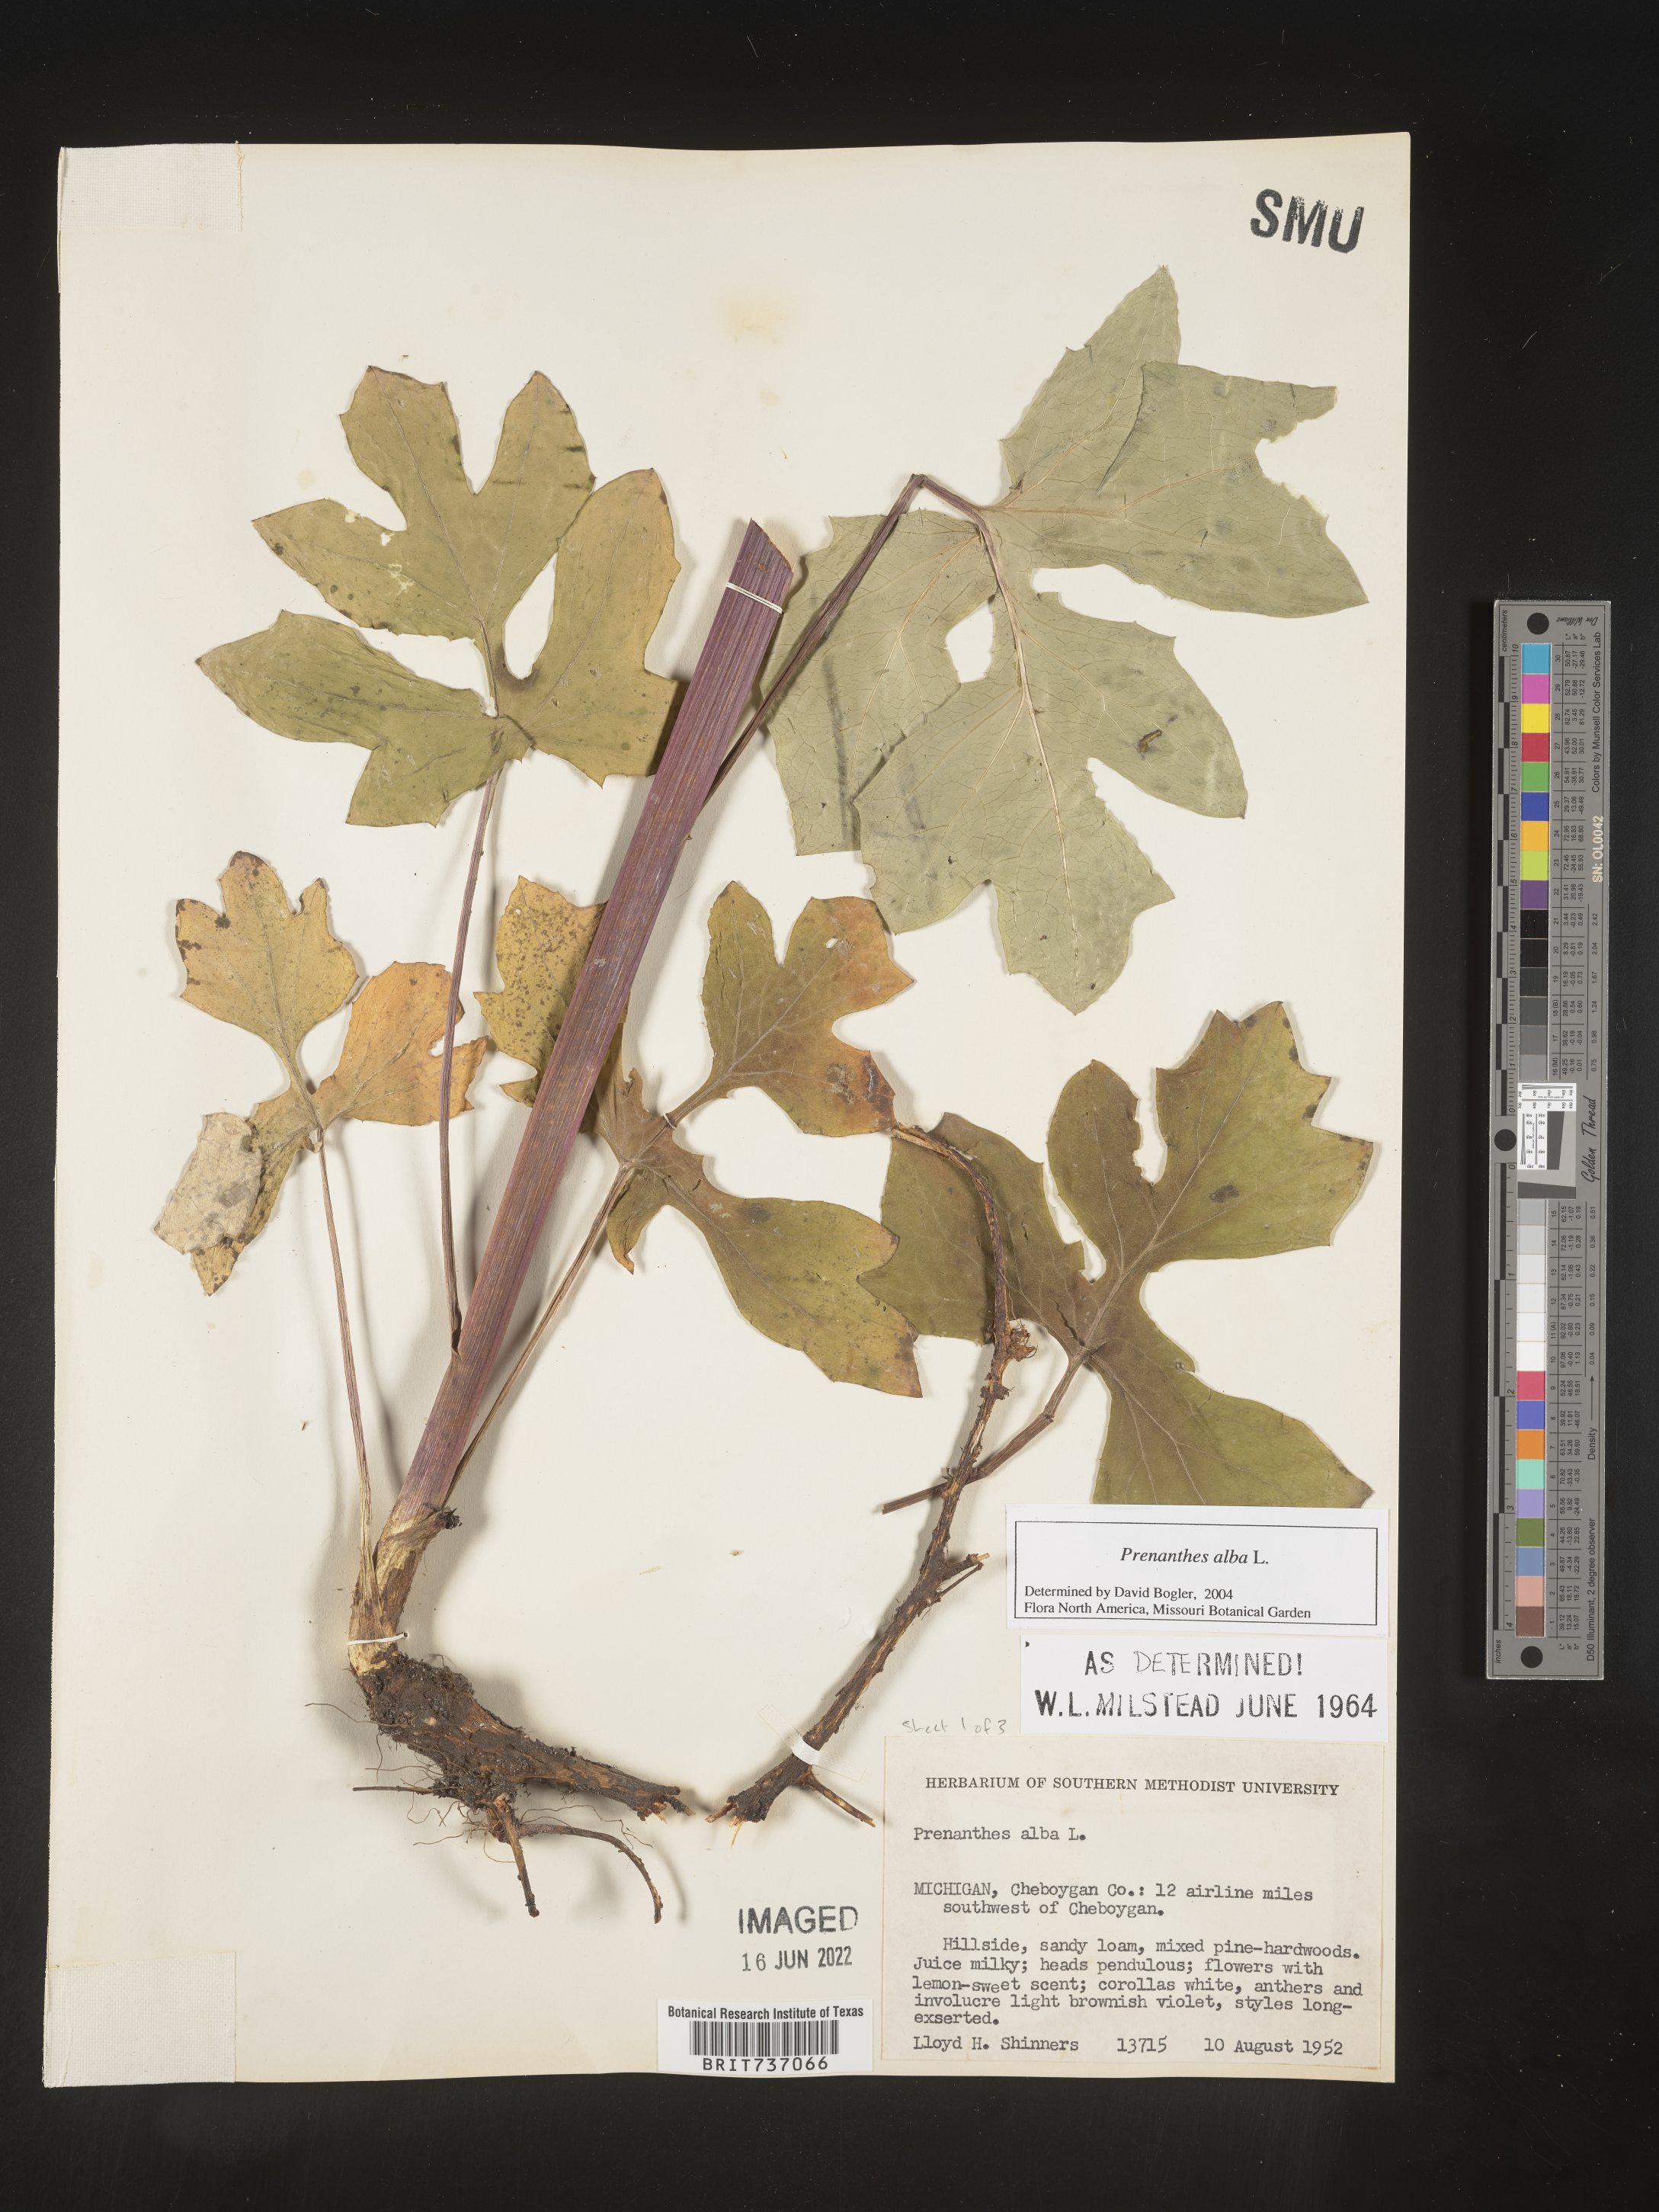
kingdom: Plantae
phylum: Tracheophyta
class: Magnoliopsida
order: Asterales
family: Asteraceae
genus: Nabalus
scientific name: Nabalus albus
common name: White rattlesnakeroot
